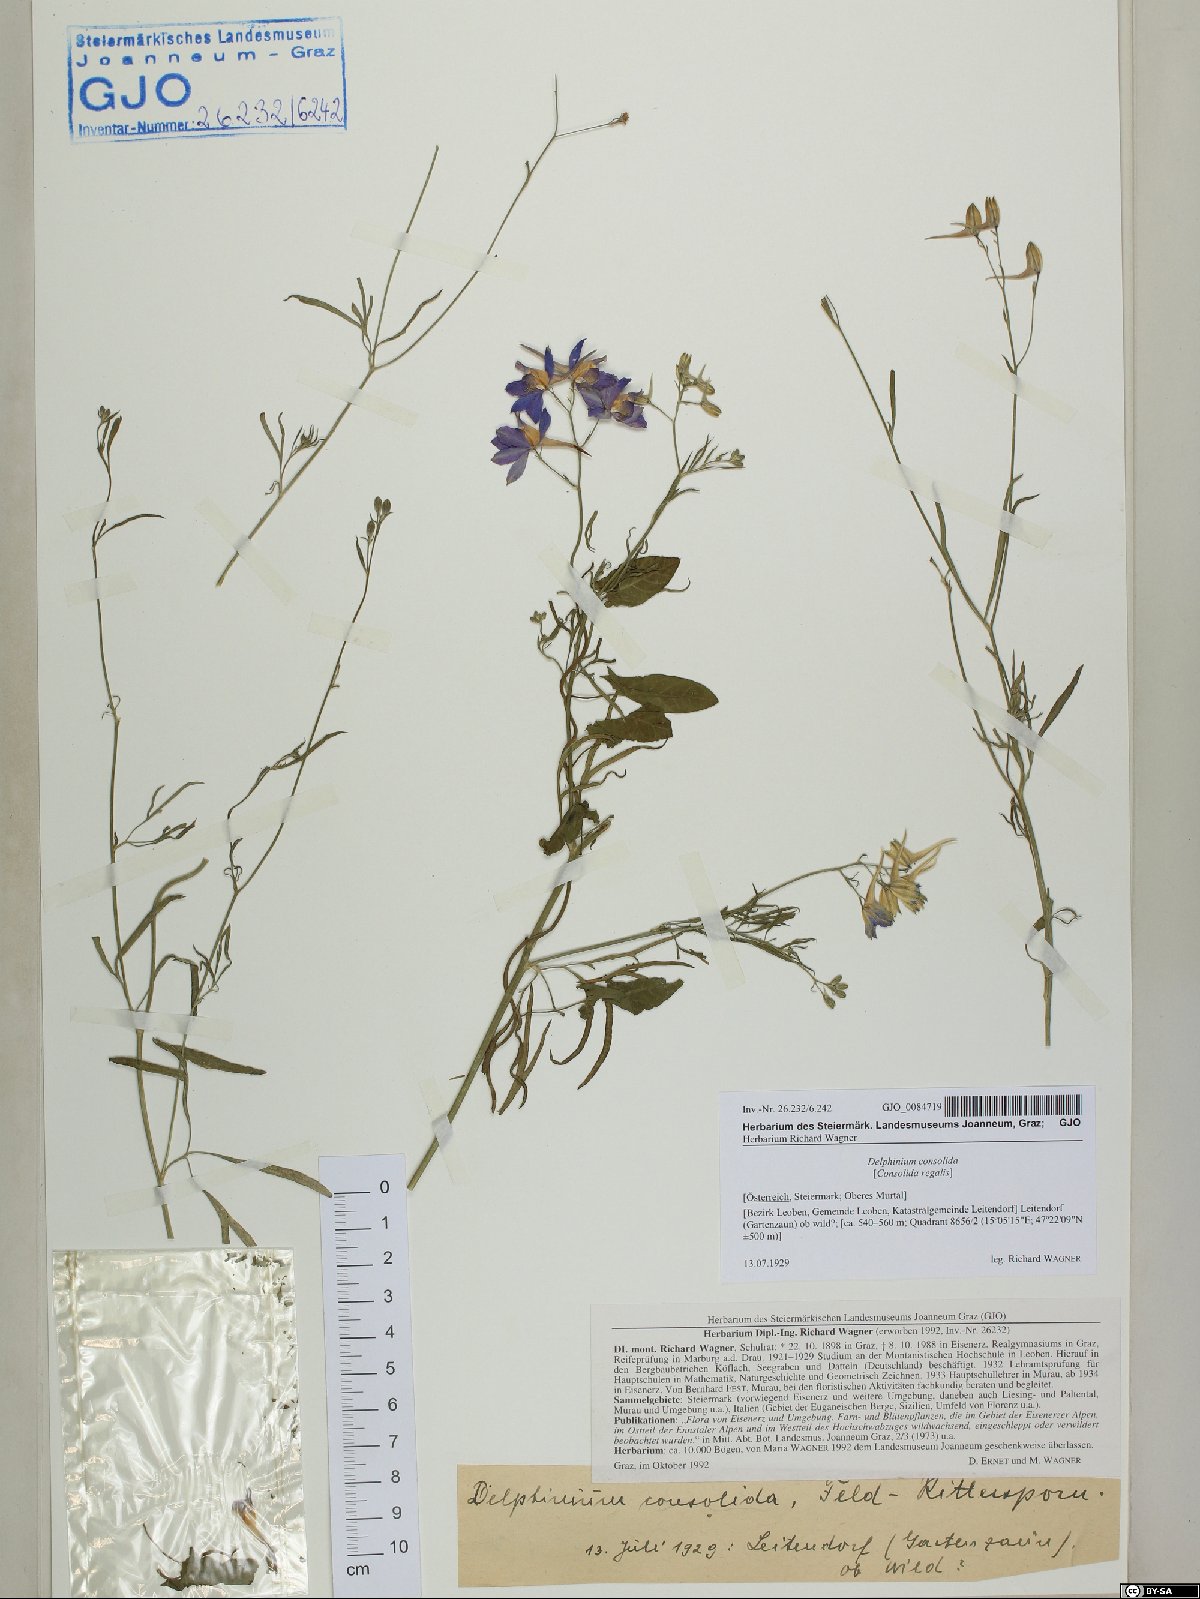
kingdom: Plantae
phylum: Tracheophyta
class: Magnoliopsida
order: Ranunculales
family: Ranunculaceae
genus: Delphinium
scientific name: Delphinium consolida
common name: Branching larkspur
